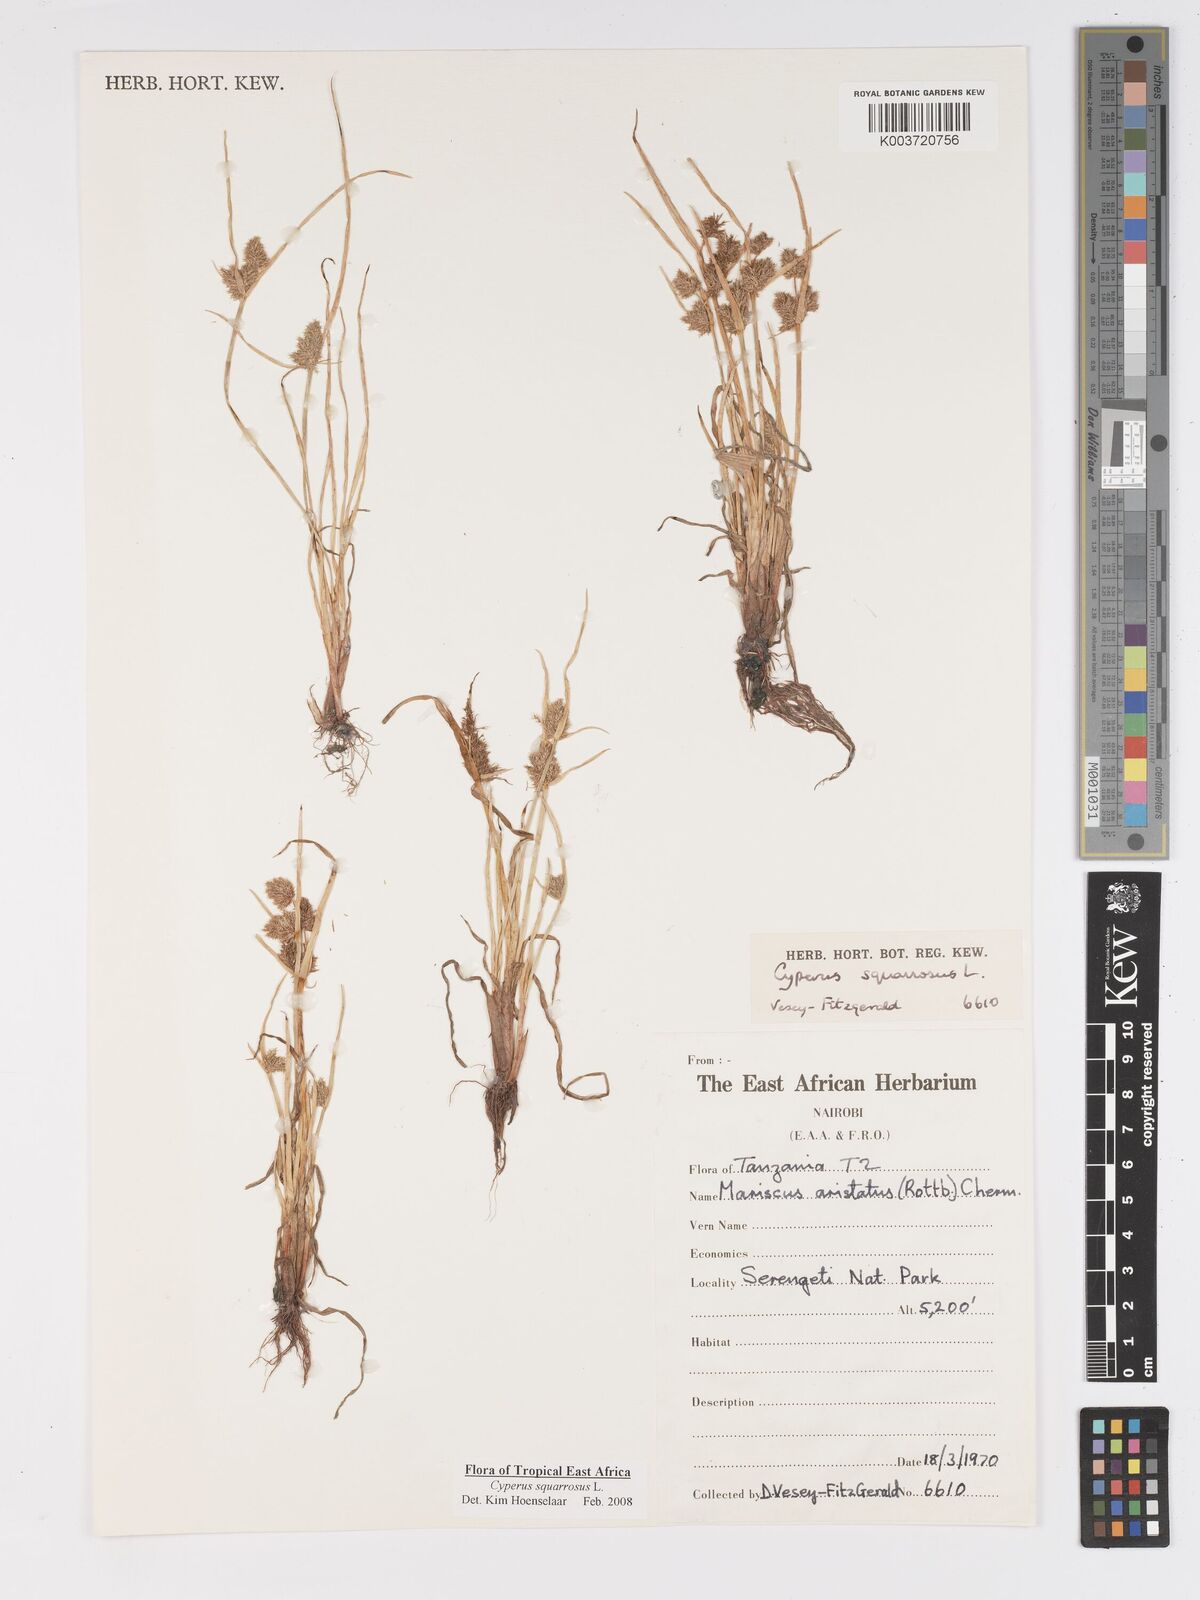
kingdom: Plantae
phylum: Tracheophyta
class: Liliopsida
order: Poales
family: Cyperaceae
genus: Cyperus
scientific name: Cyperus squarrosus
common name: Awned cyperus
